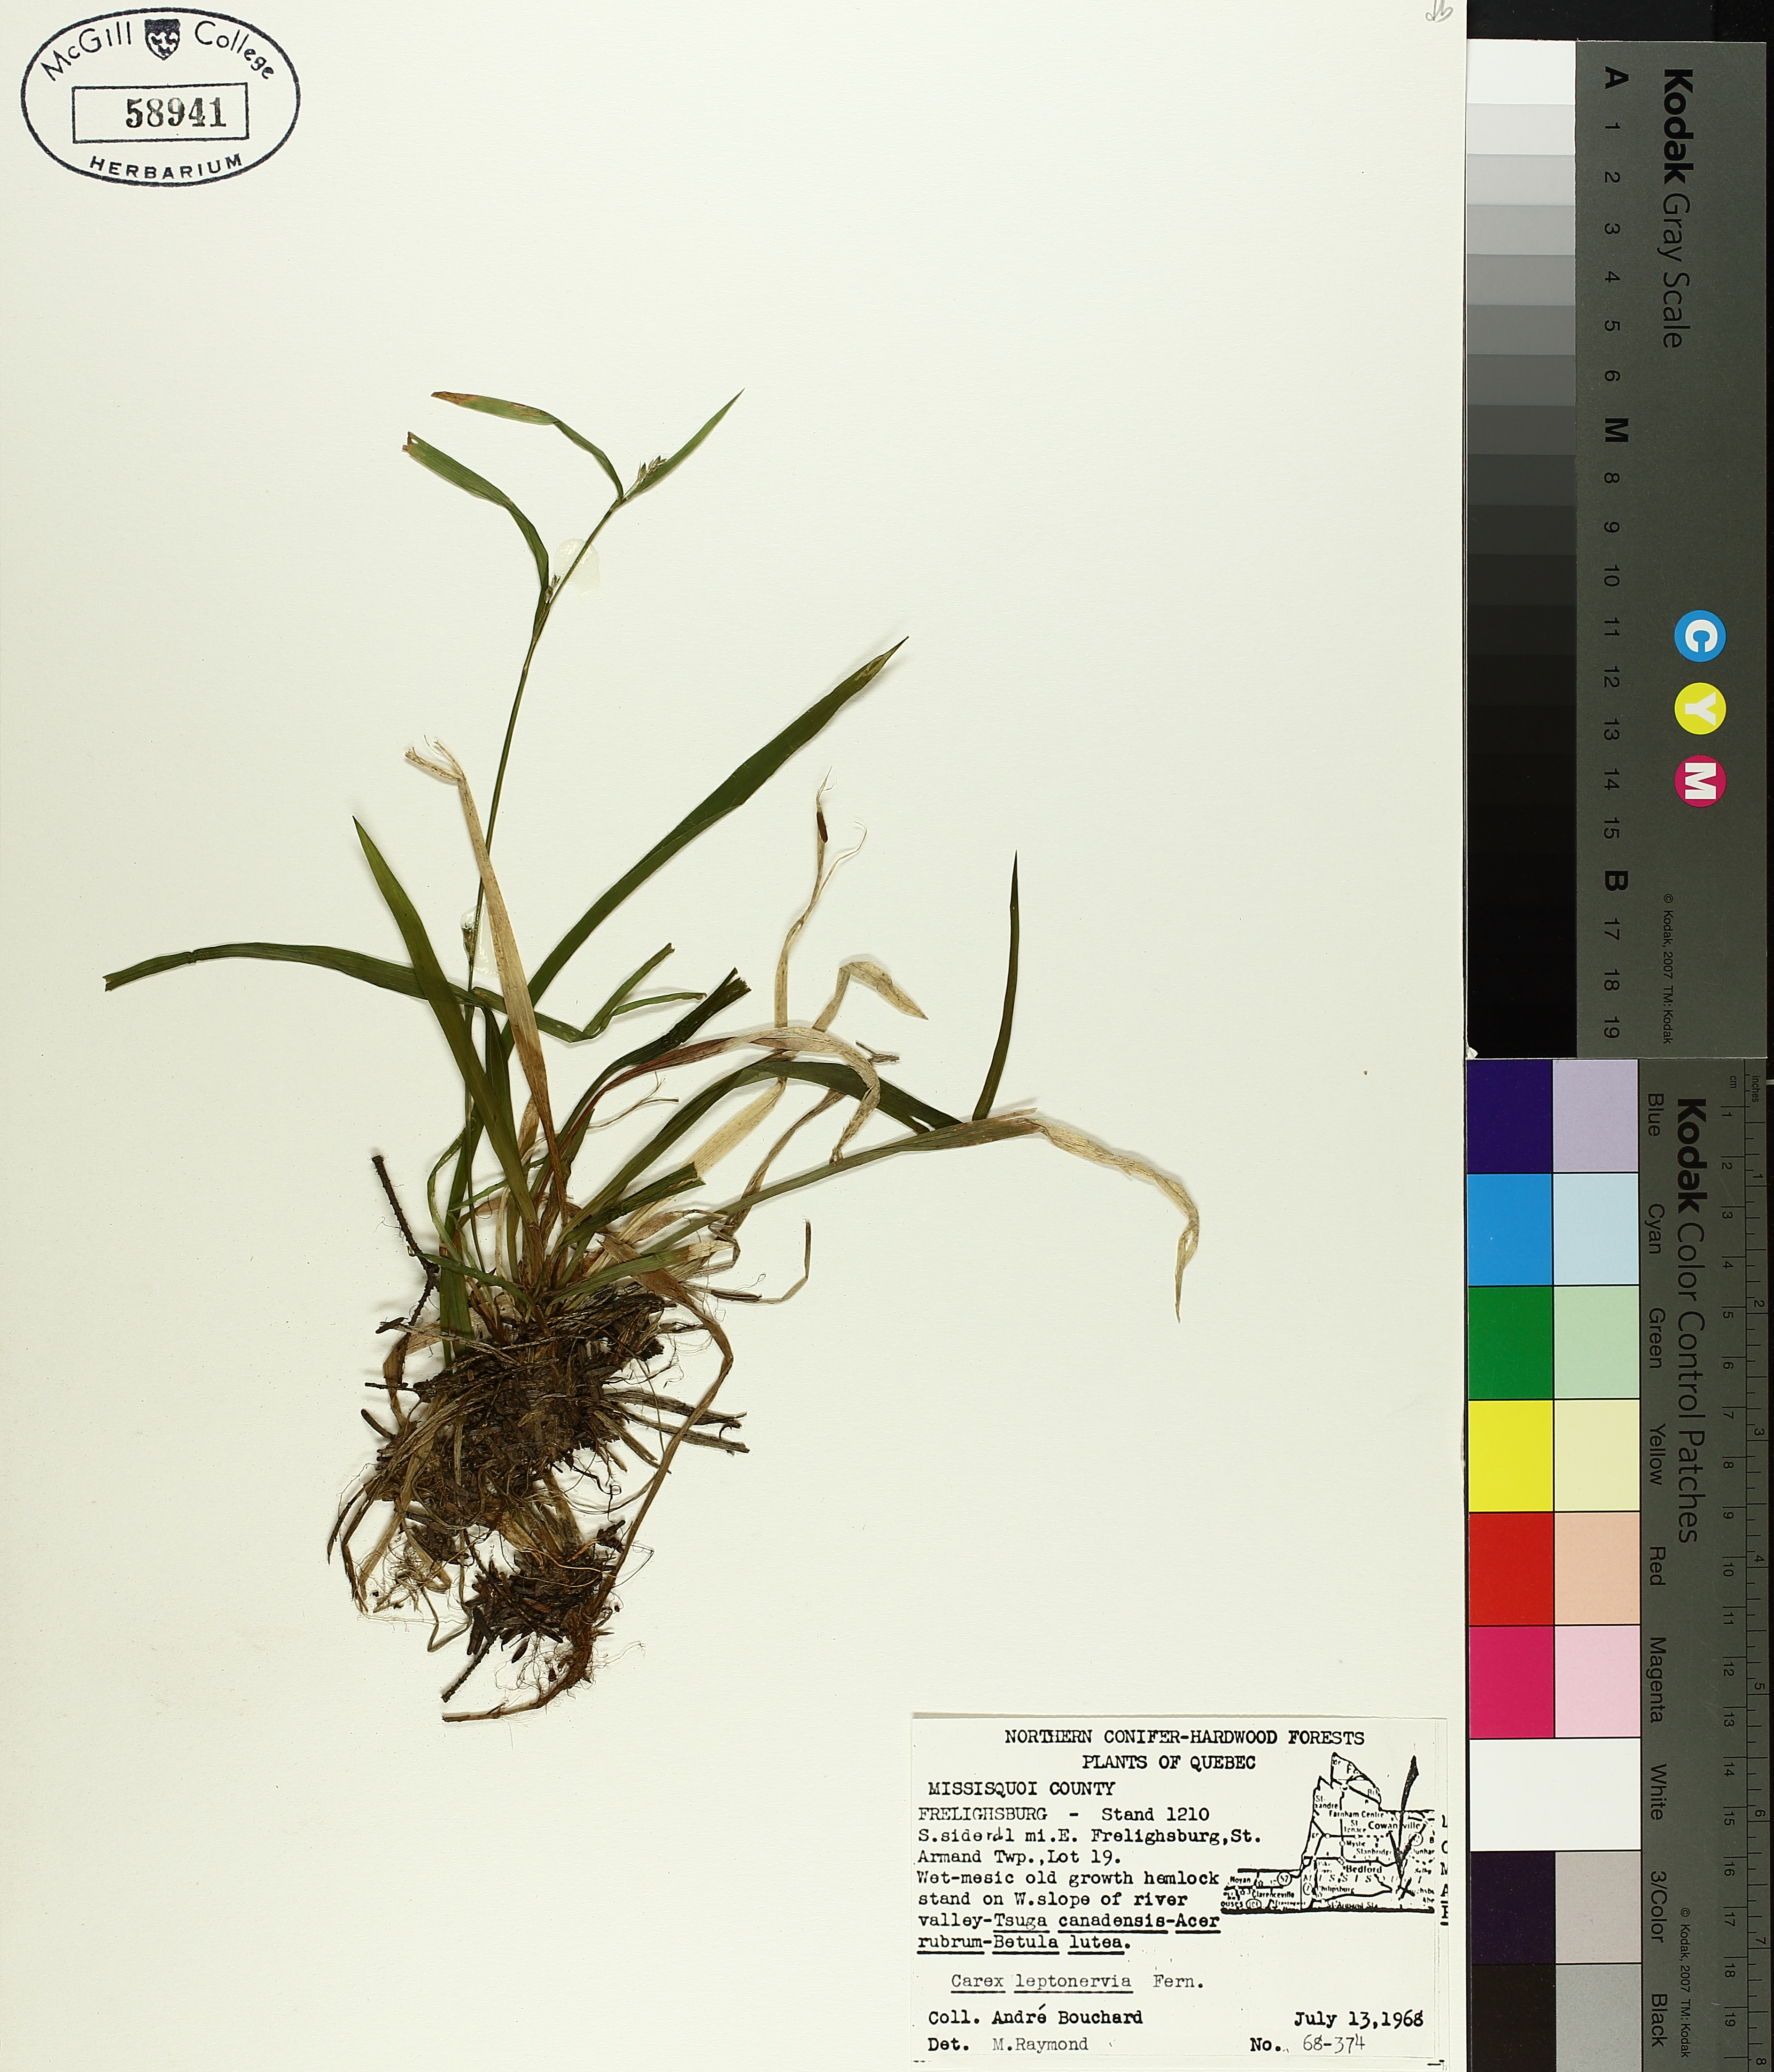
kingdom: Plantae
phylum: Tracheophyta
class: Liliopsida
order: Poales
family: Cyperaceae
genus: Carex
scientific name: Carex leptonervia
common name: Few-nerved wood sedge
